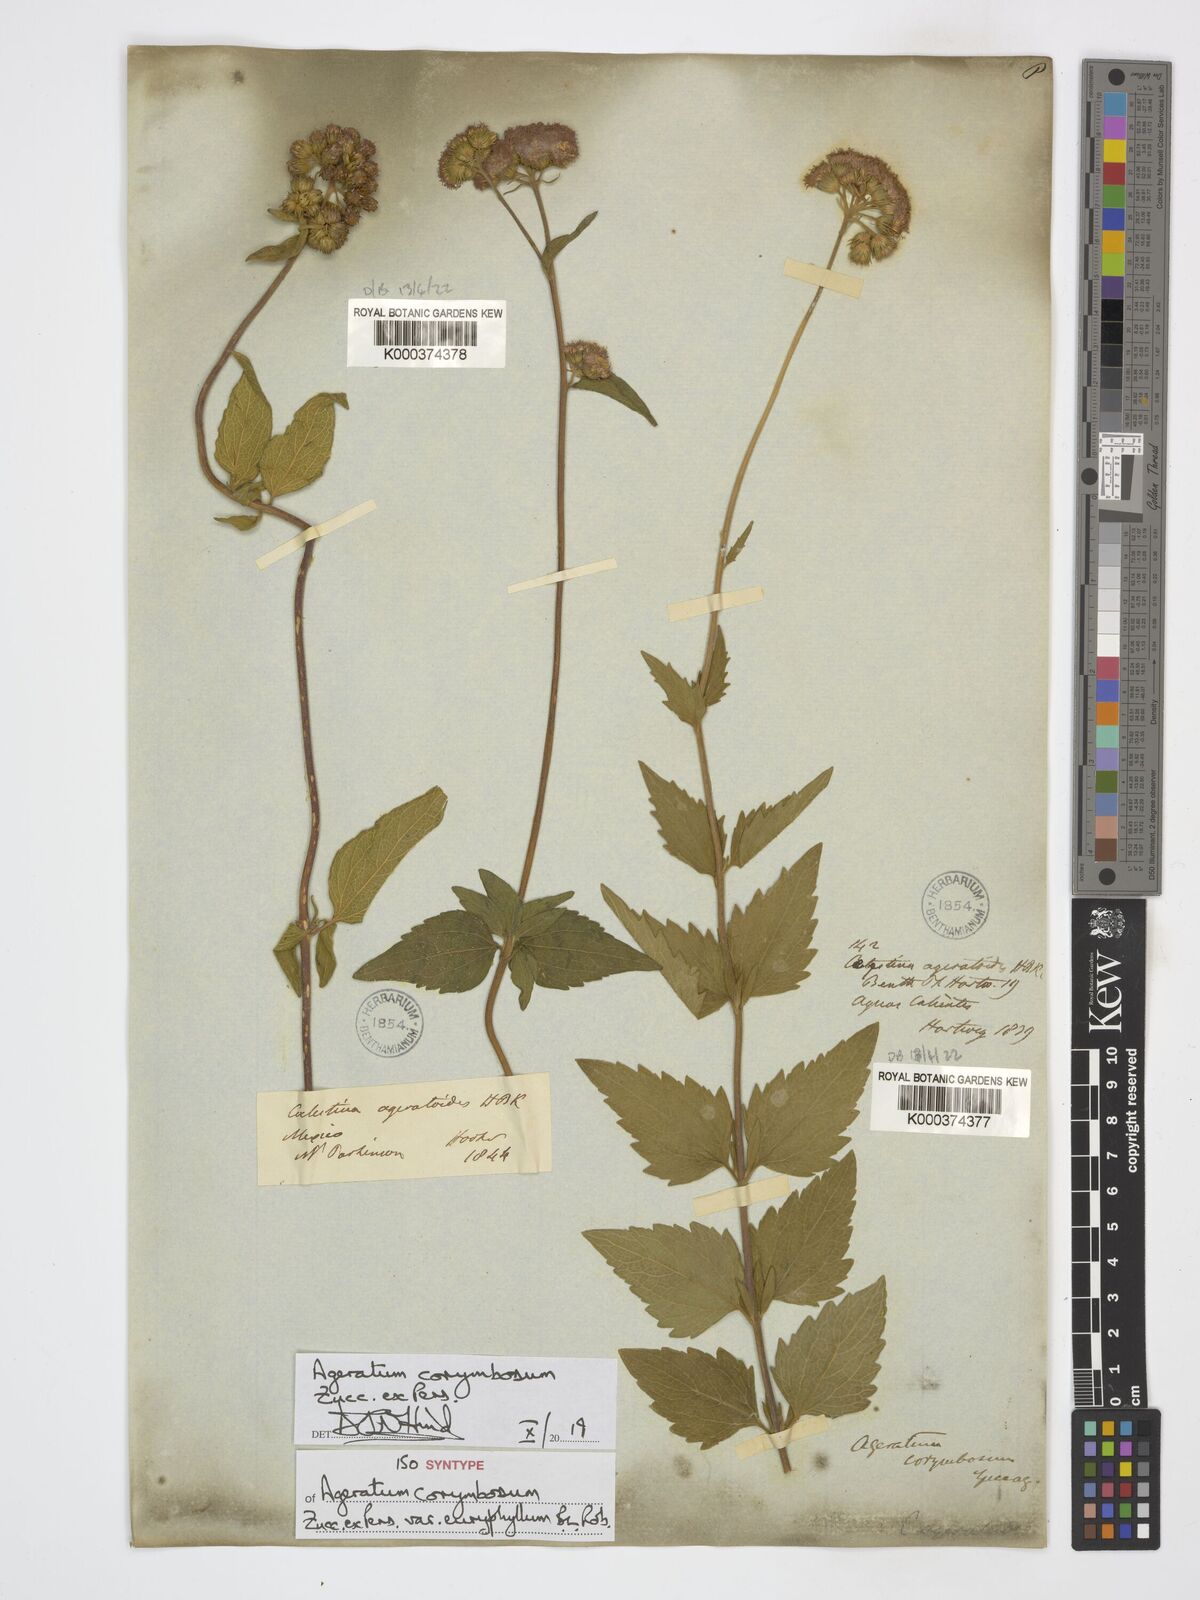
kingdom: Plantae
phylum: Tracheophyta
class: Magnoliopsida
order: Asterales
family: Asteraceae
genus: Ageratum
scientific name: Ageratum corymbosum
